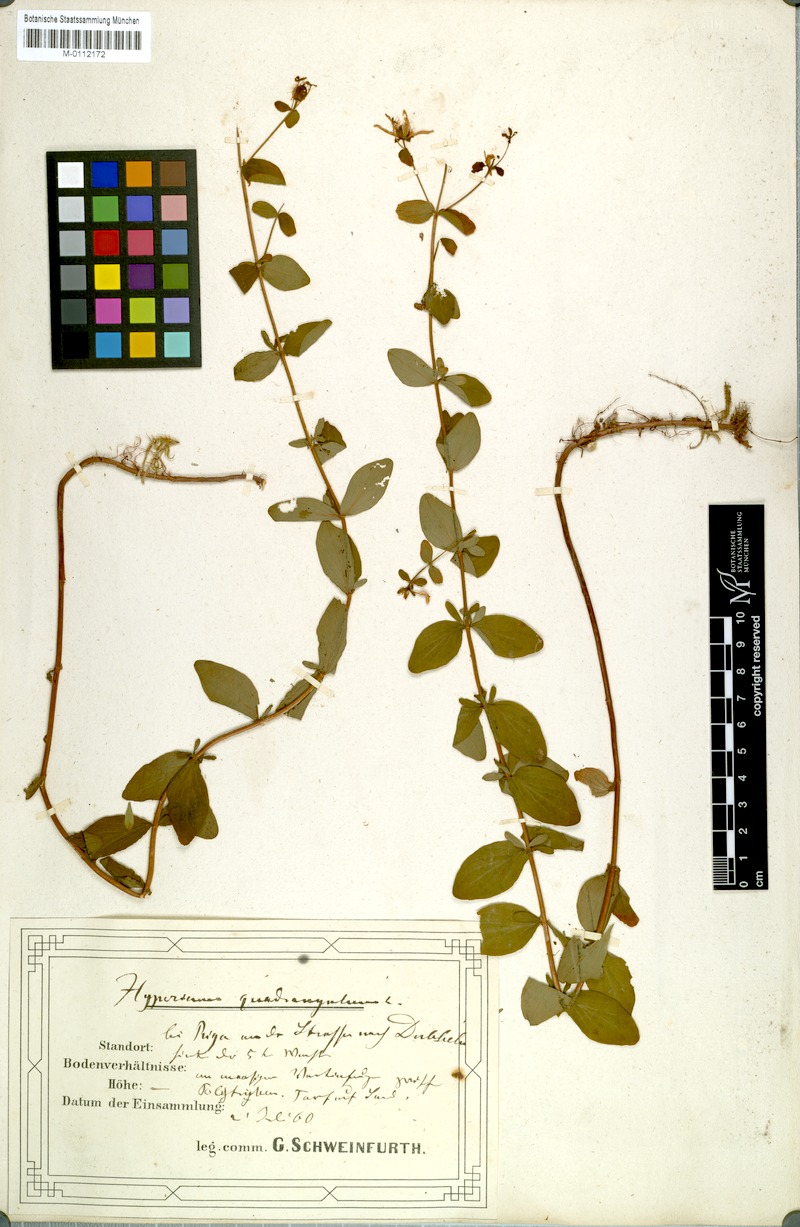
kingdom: Plantae
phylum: Tracheophyta
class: Magnoliopsida
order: Malpighiales
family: Hypericaceae
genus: Hypericum
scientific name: Hypericum tetrapterum
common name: Square-stalked st. john's-wort
